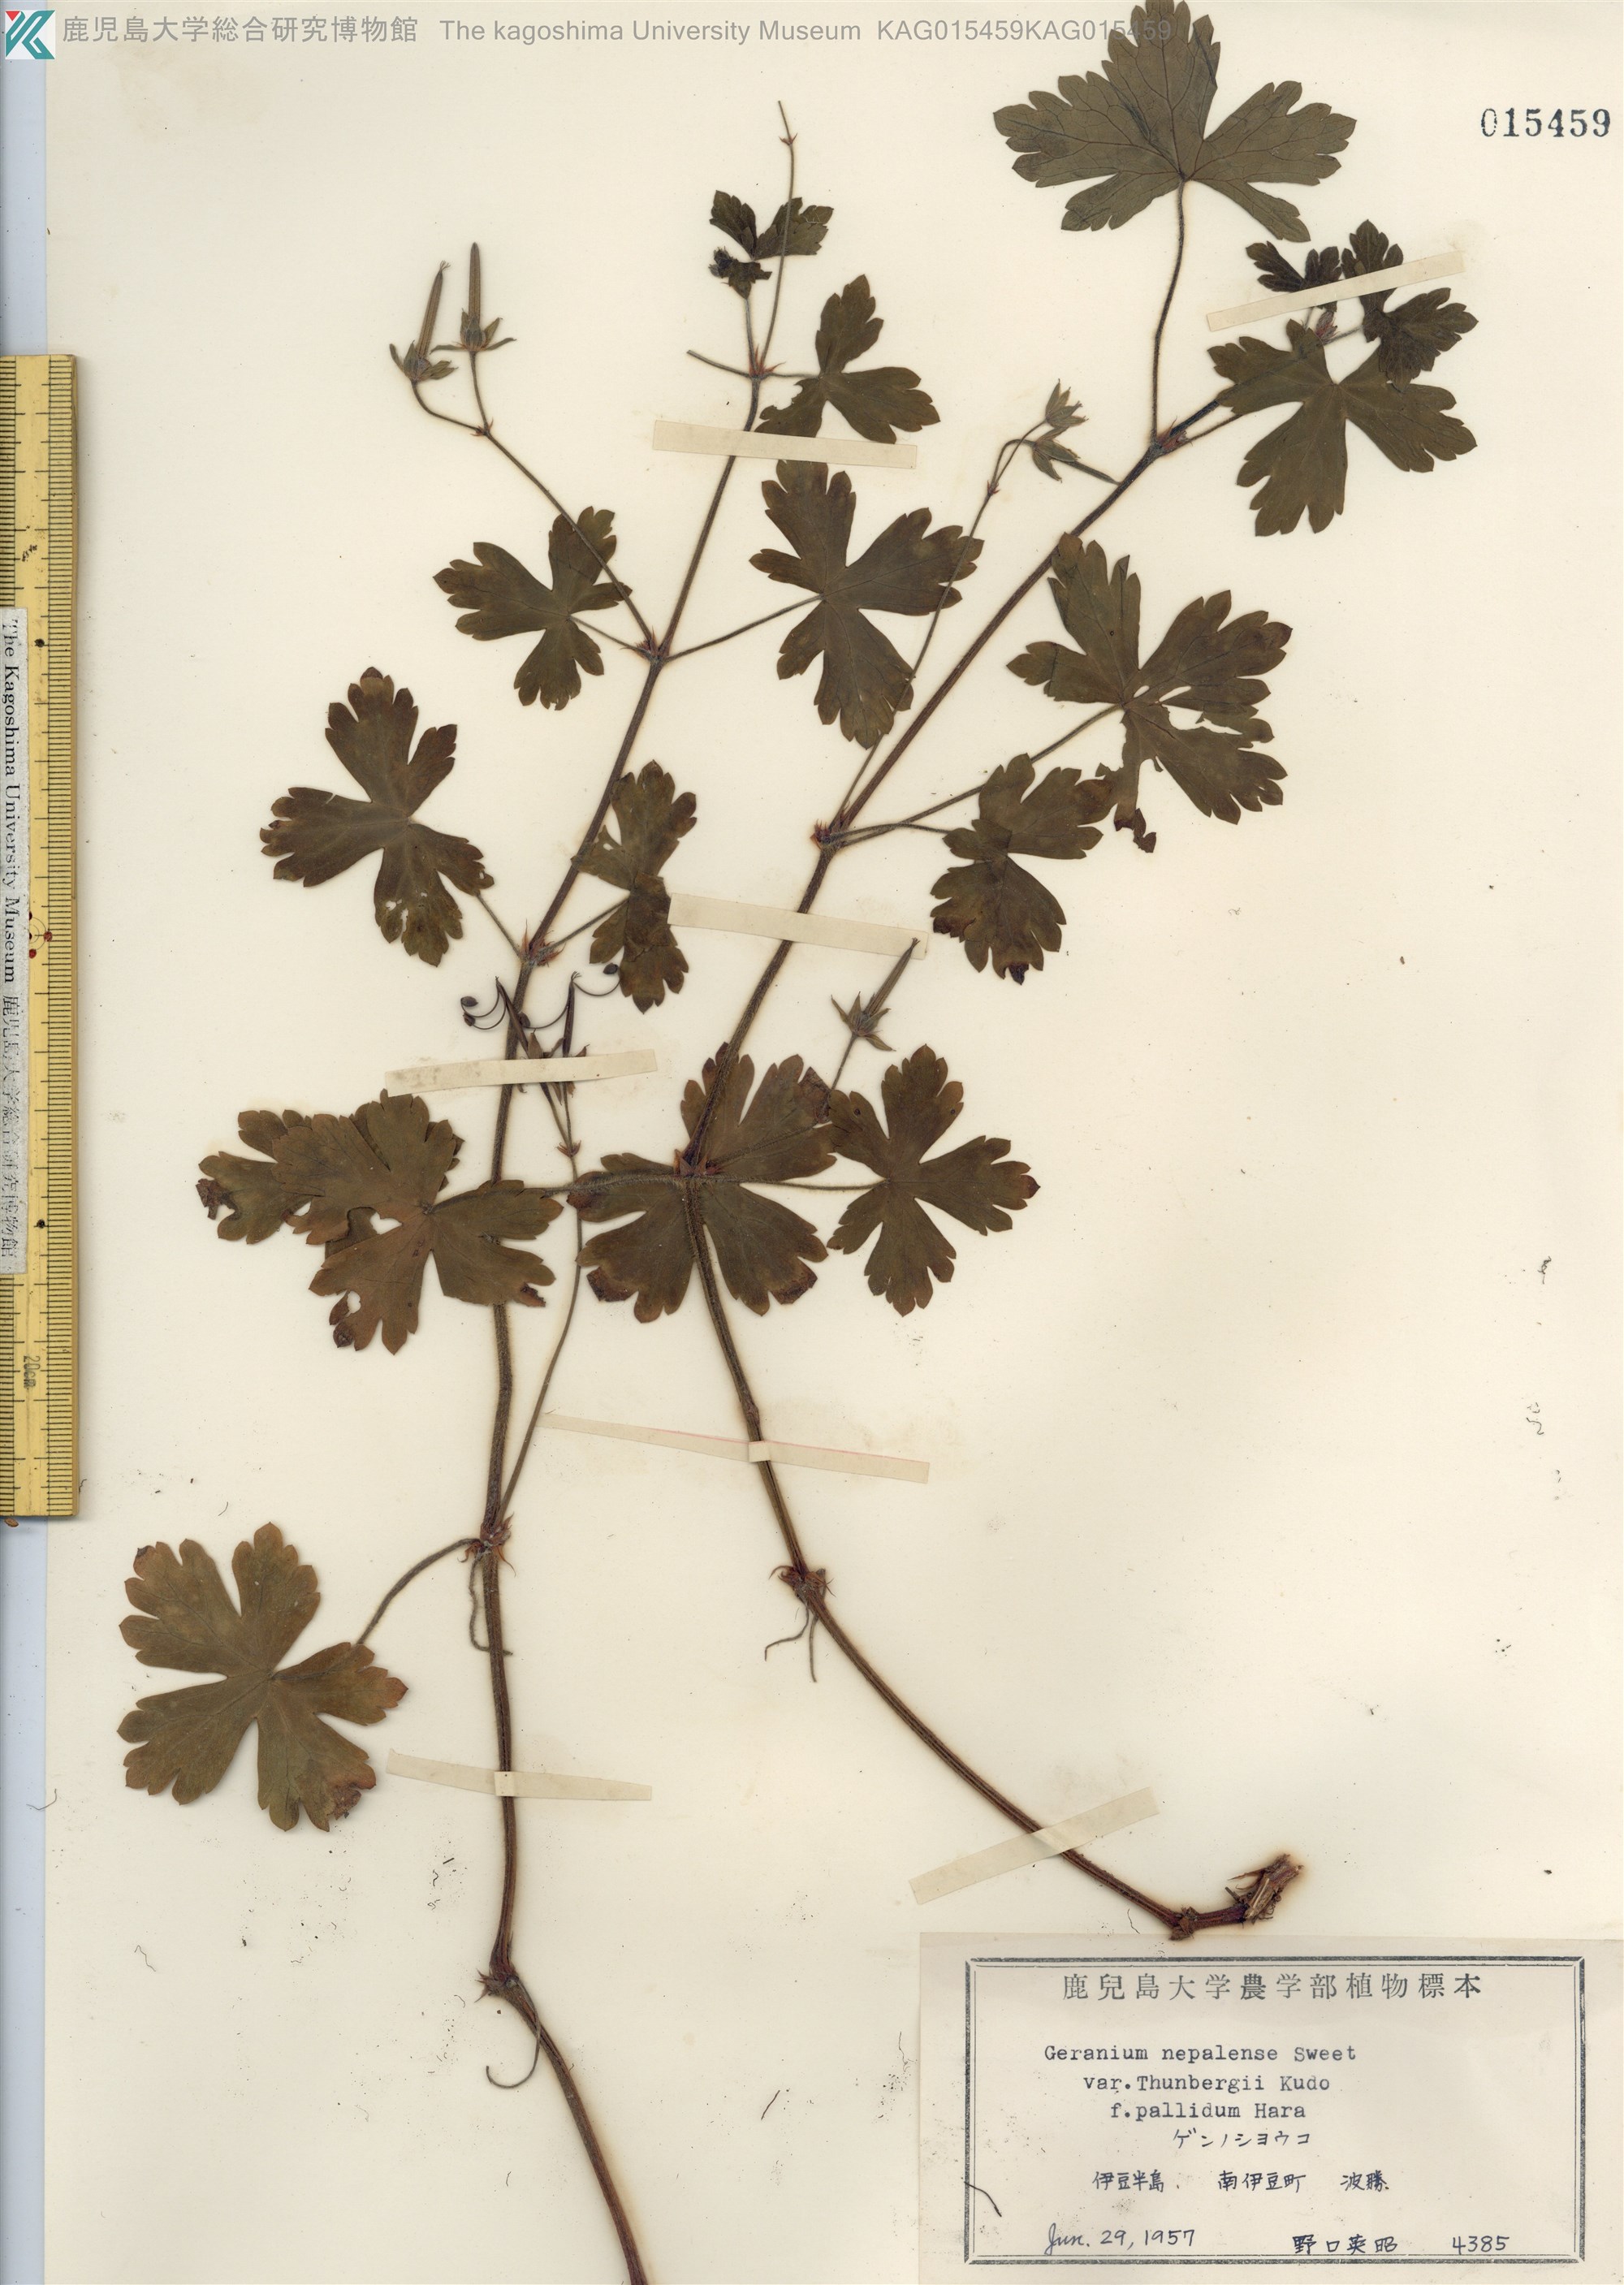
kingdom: Plantae
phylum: Tracheophyta
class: Magnoliopsida
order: Geraniales
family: Geraniaceae
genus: Geranium
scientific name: Geranium thunbergii
